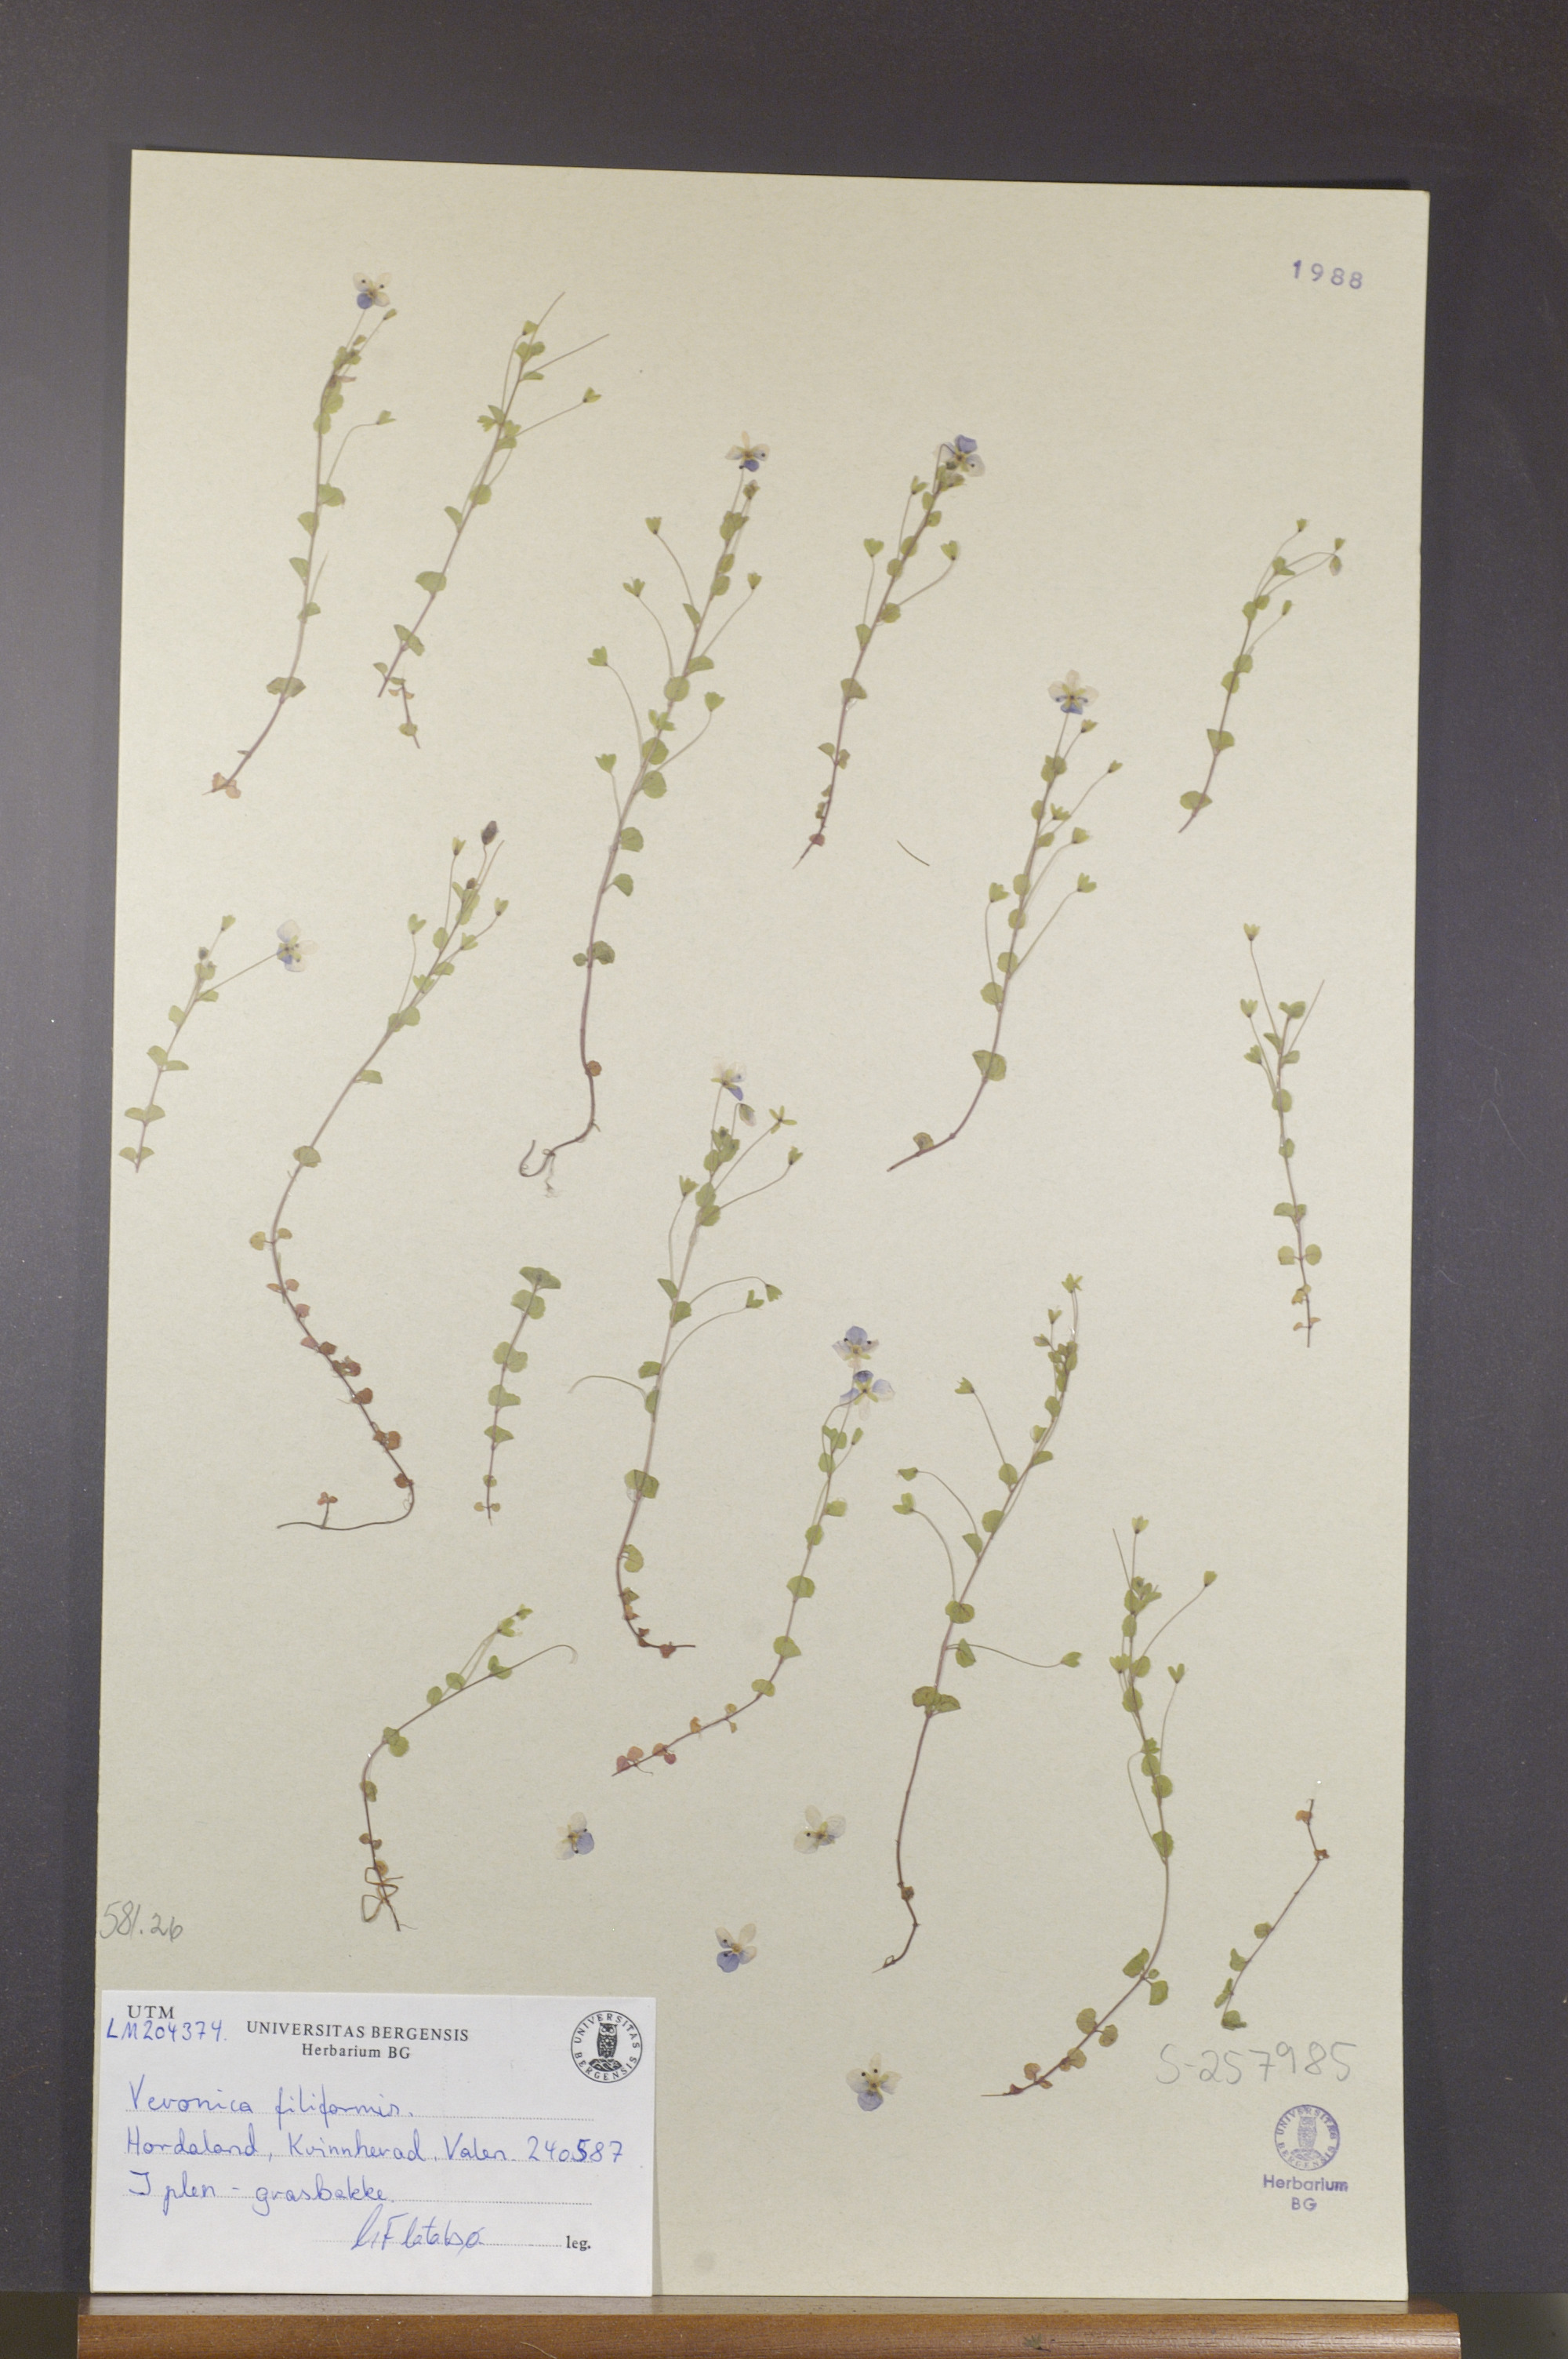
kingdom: Plantae
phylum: Tracheophyta
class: Magnoliopsida
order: Lamiales
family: Plantaginaceae
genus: Veronica
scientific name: Veronica filiformis
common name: Slender speedwell
